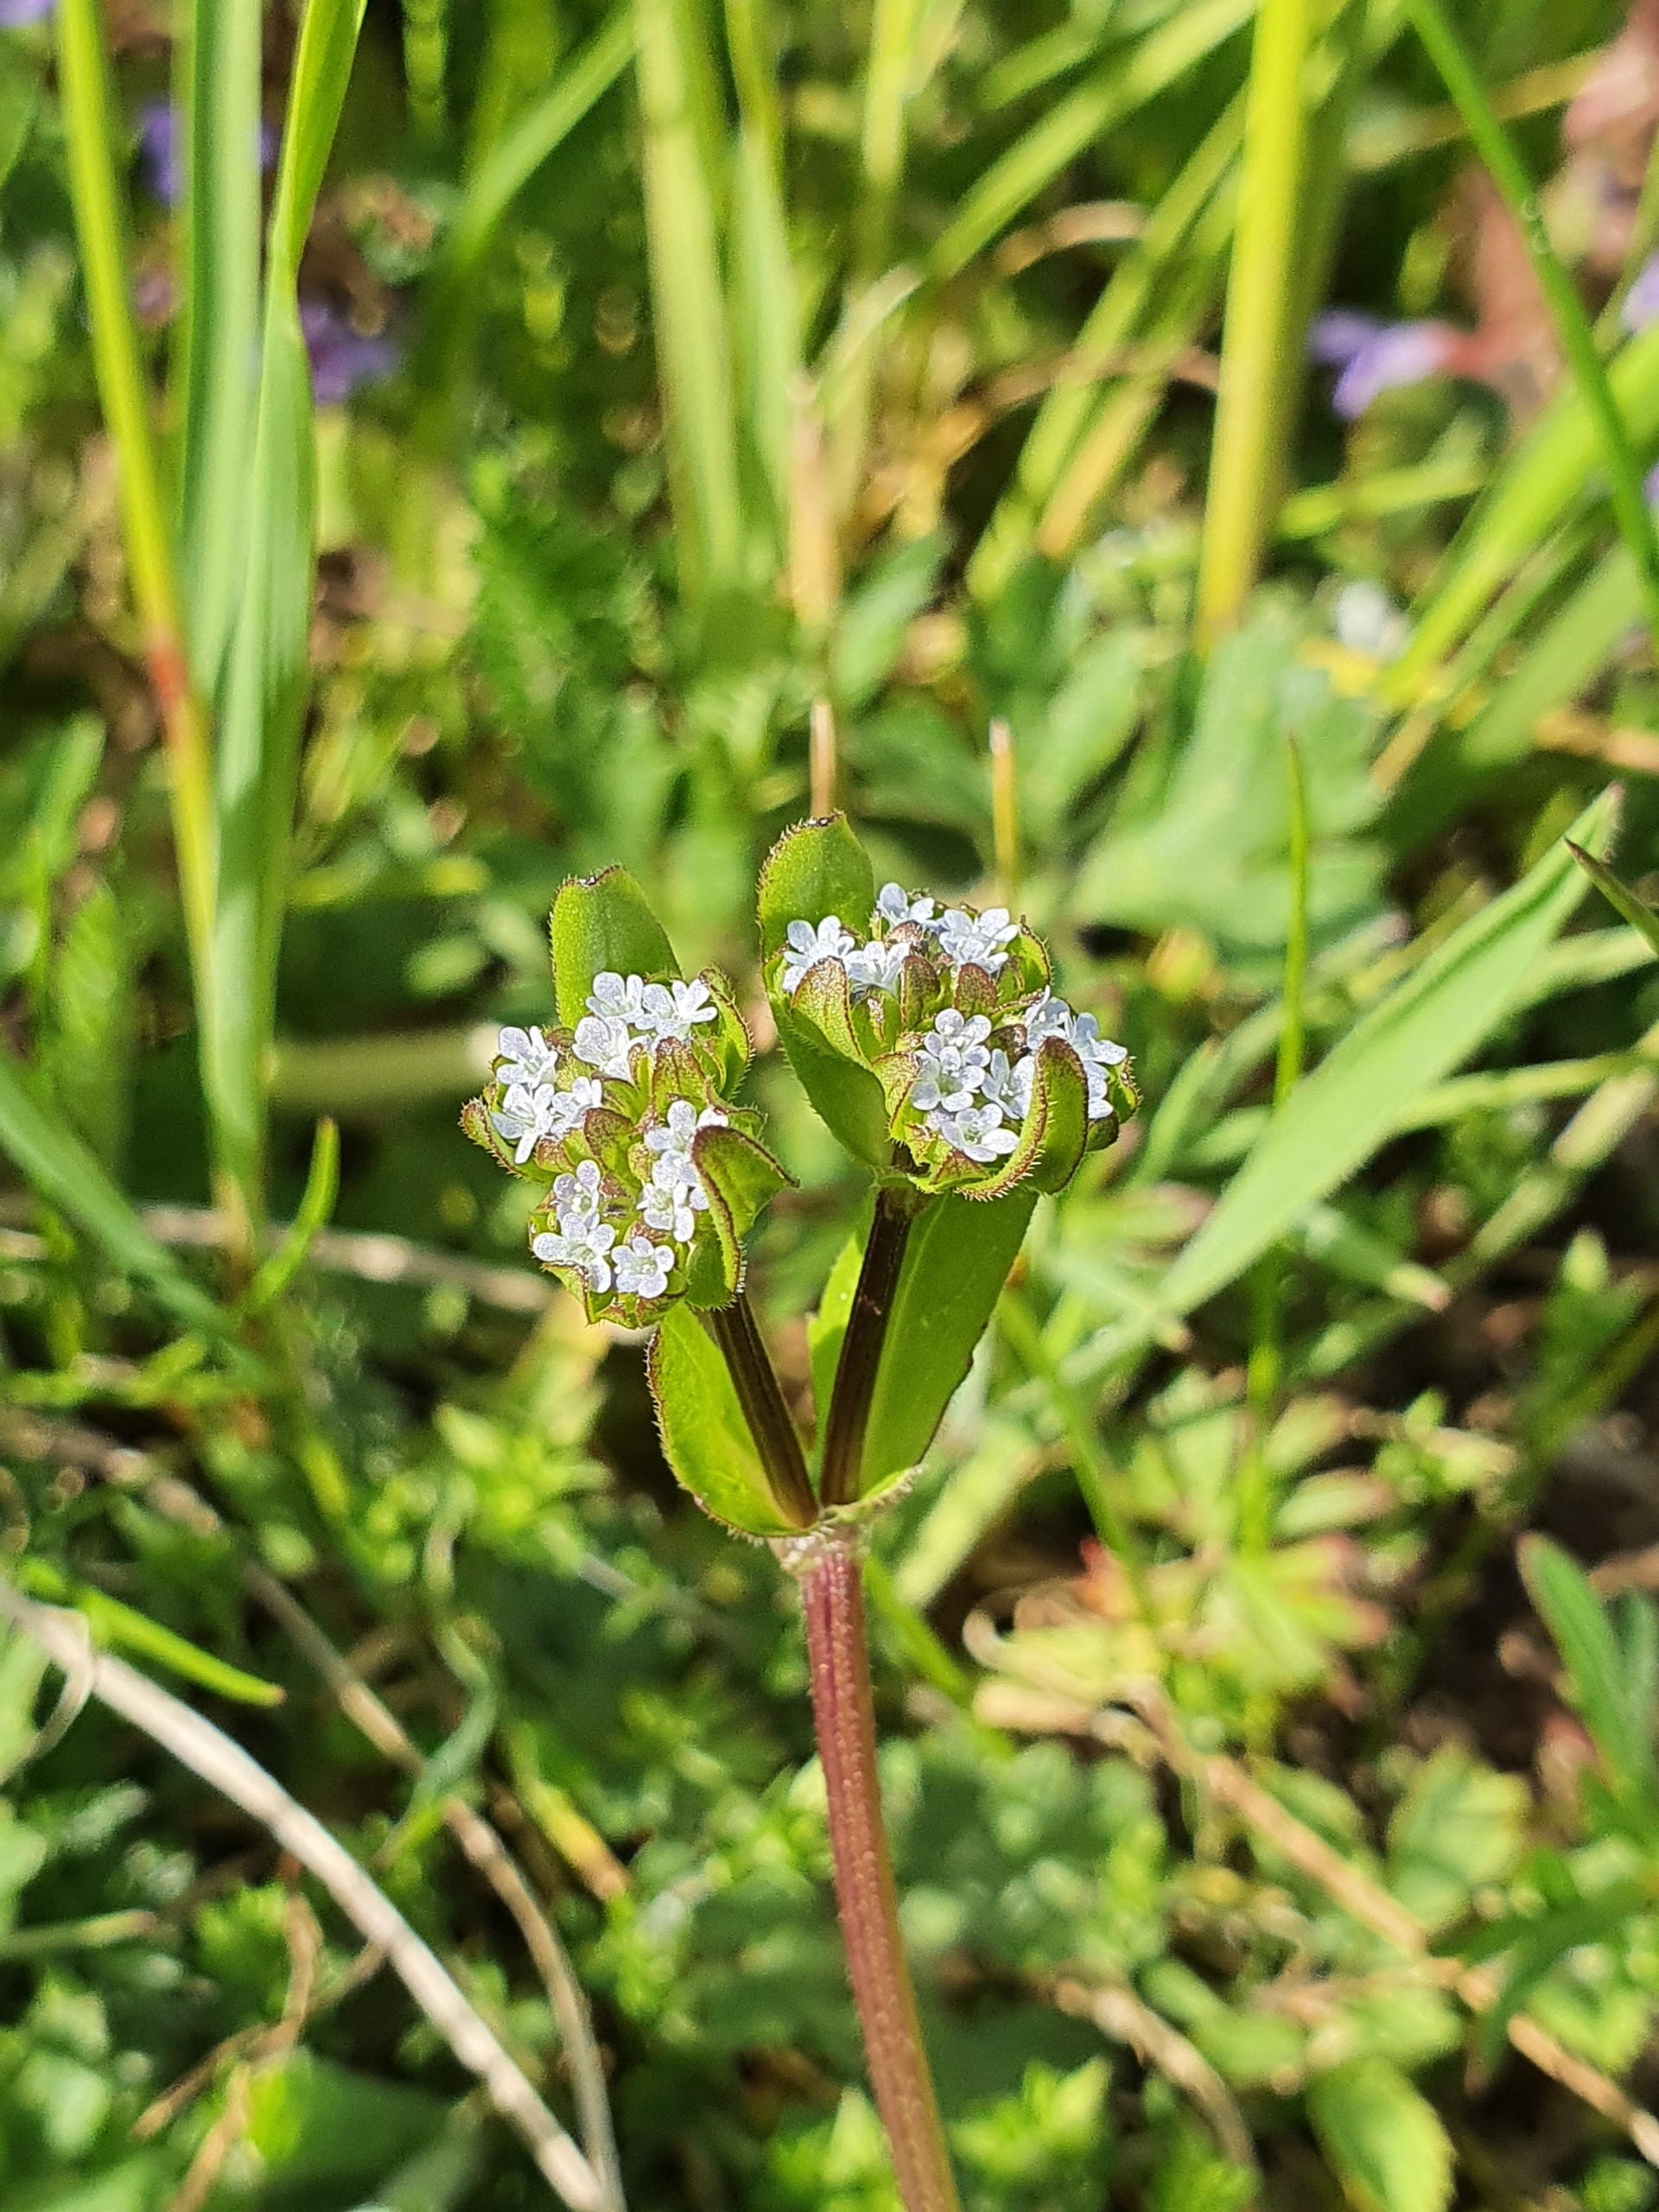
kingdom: Plantae
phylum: Tracheophyta
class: Magnoliopsida
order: Dipsacales
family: Caprifoliaceae
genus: Valerianella
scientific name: Valerianella locusta
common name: Tandfri vårsalat
